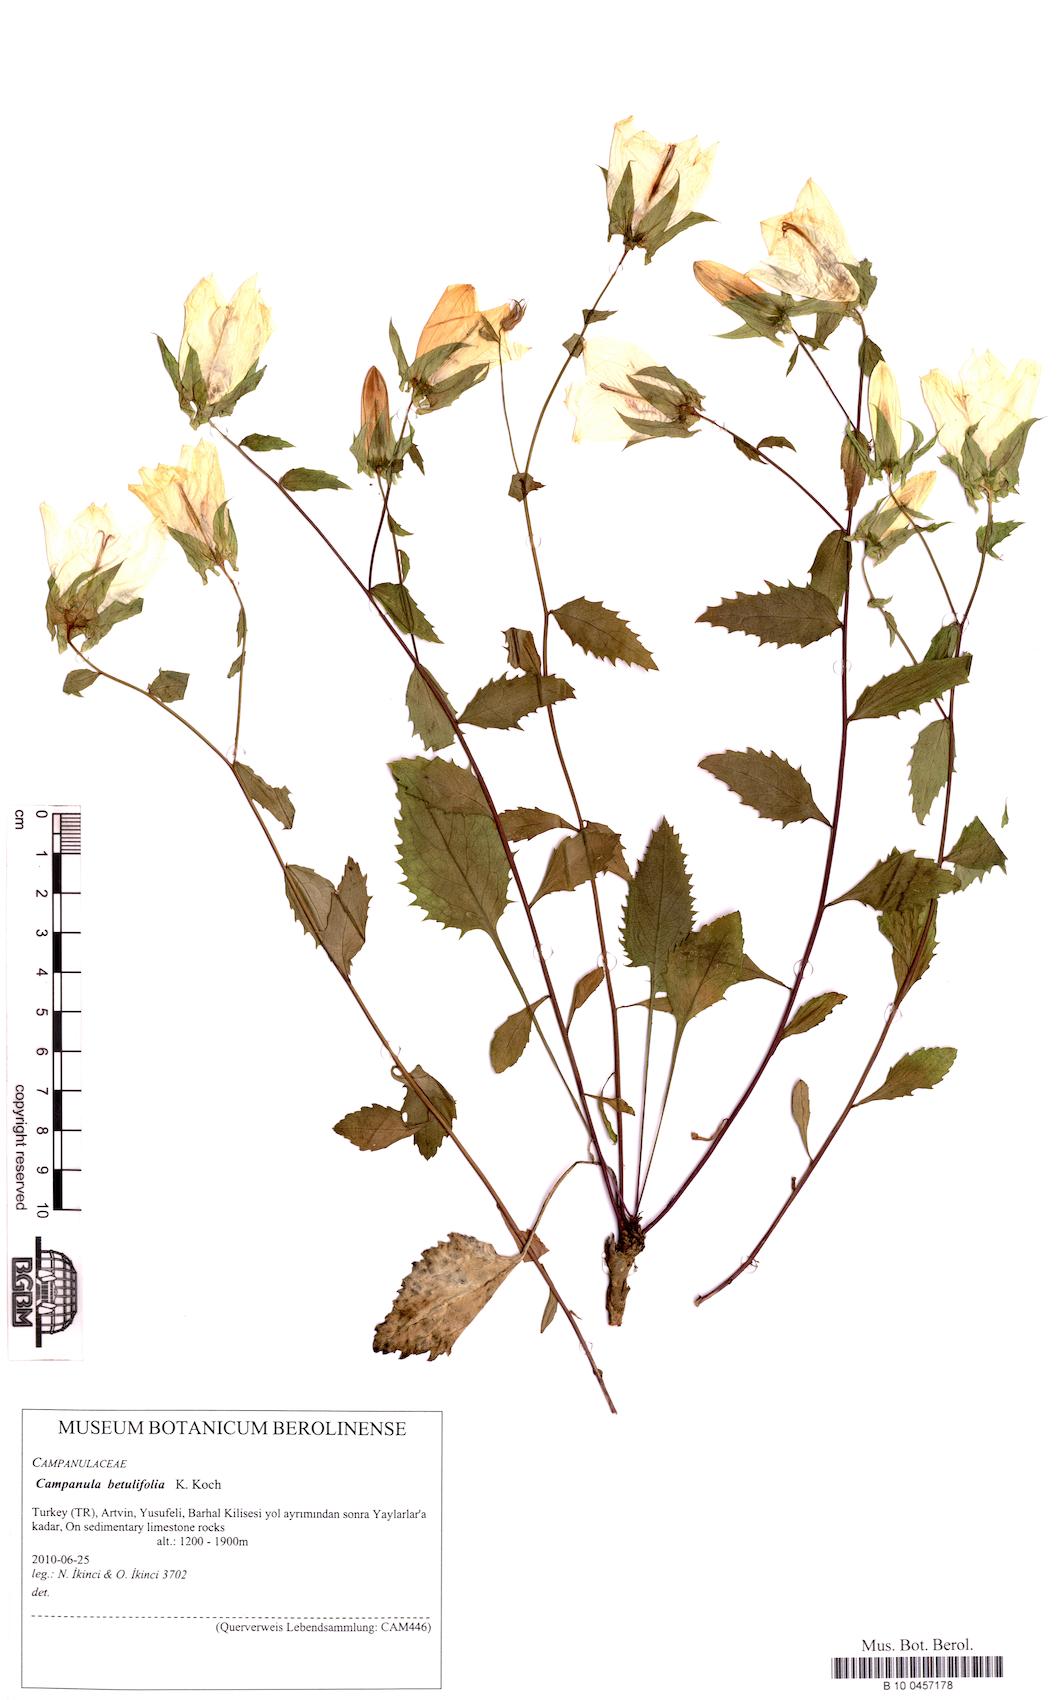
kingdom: Plantae
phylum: Tracheophyta
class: Magnoliopsida
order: Asterales
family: Campanulaceae
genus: Campanula
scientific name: Campanula betulifolia
